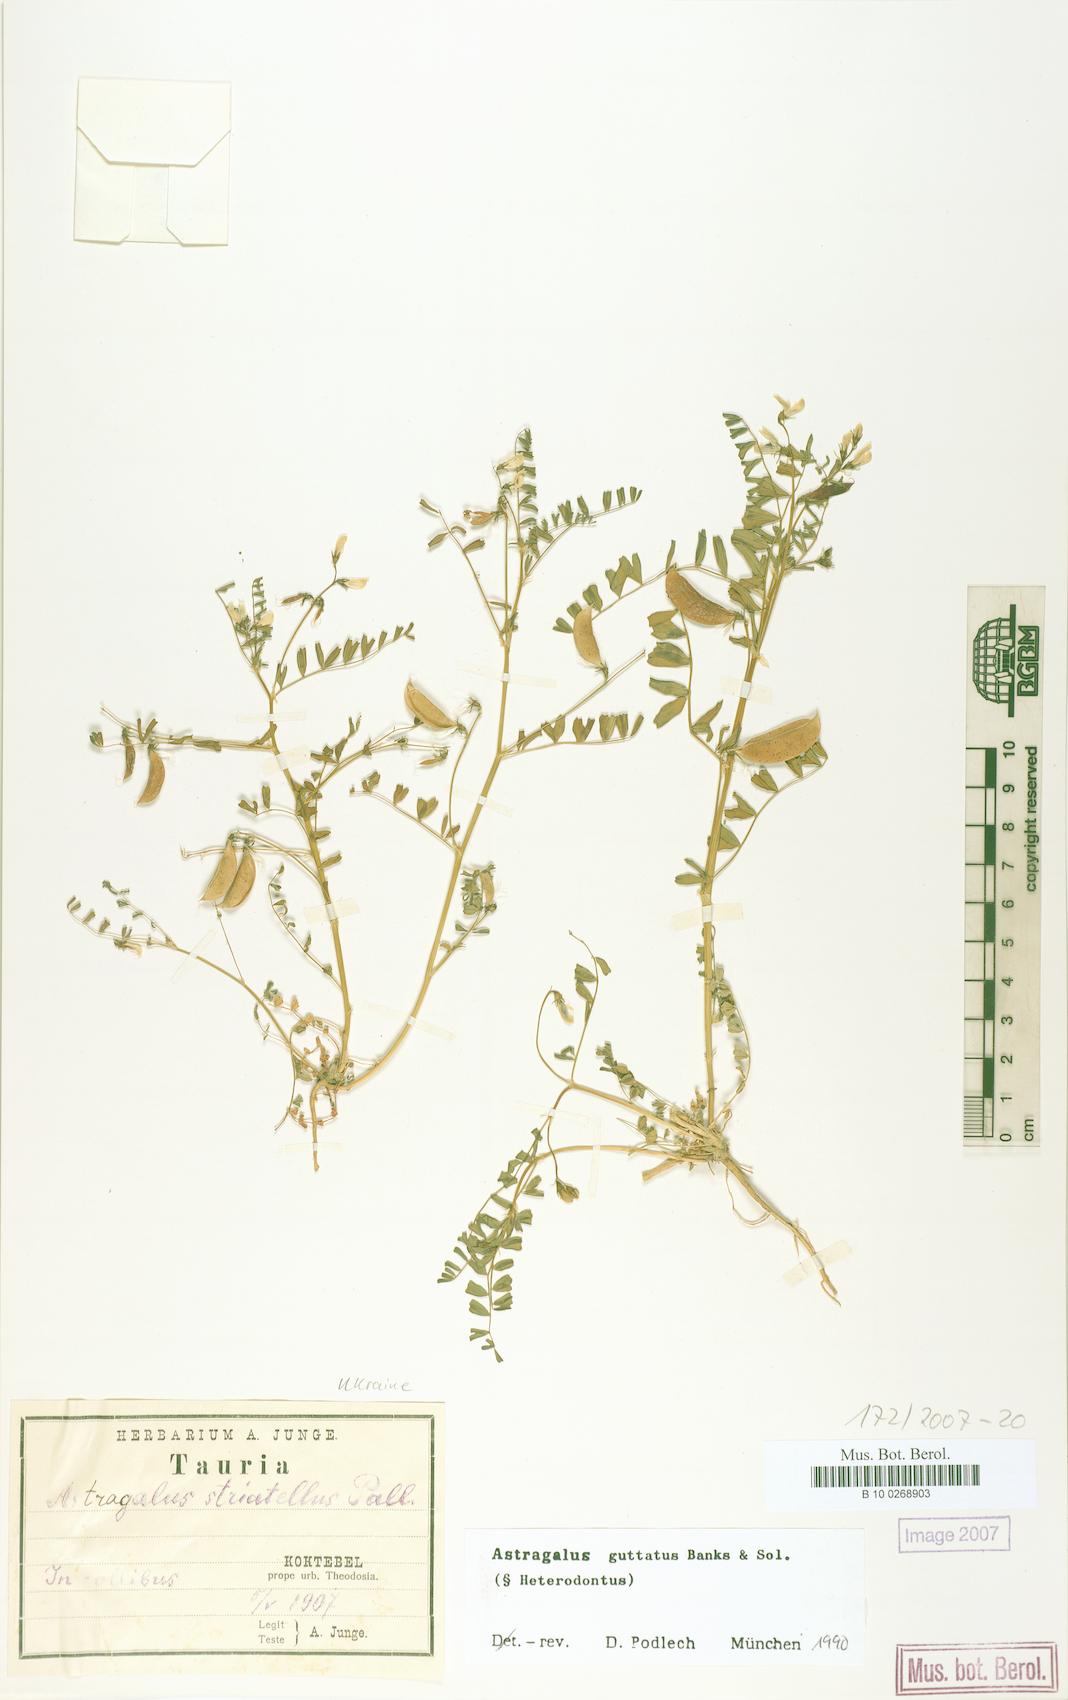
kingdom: Plantae
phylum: Tracheophyta
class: Magnoliopsida
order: Fabales
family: Fabaceae
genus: Astragalus
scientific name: Astragalus guttatus
